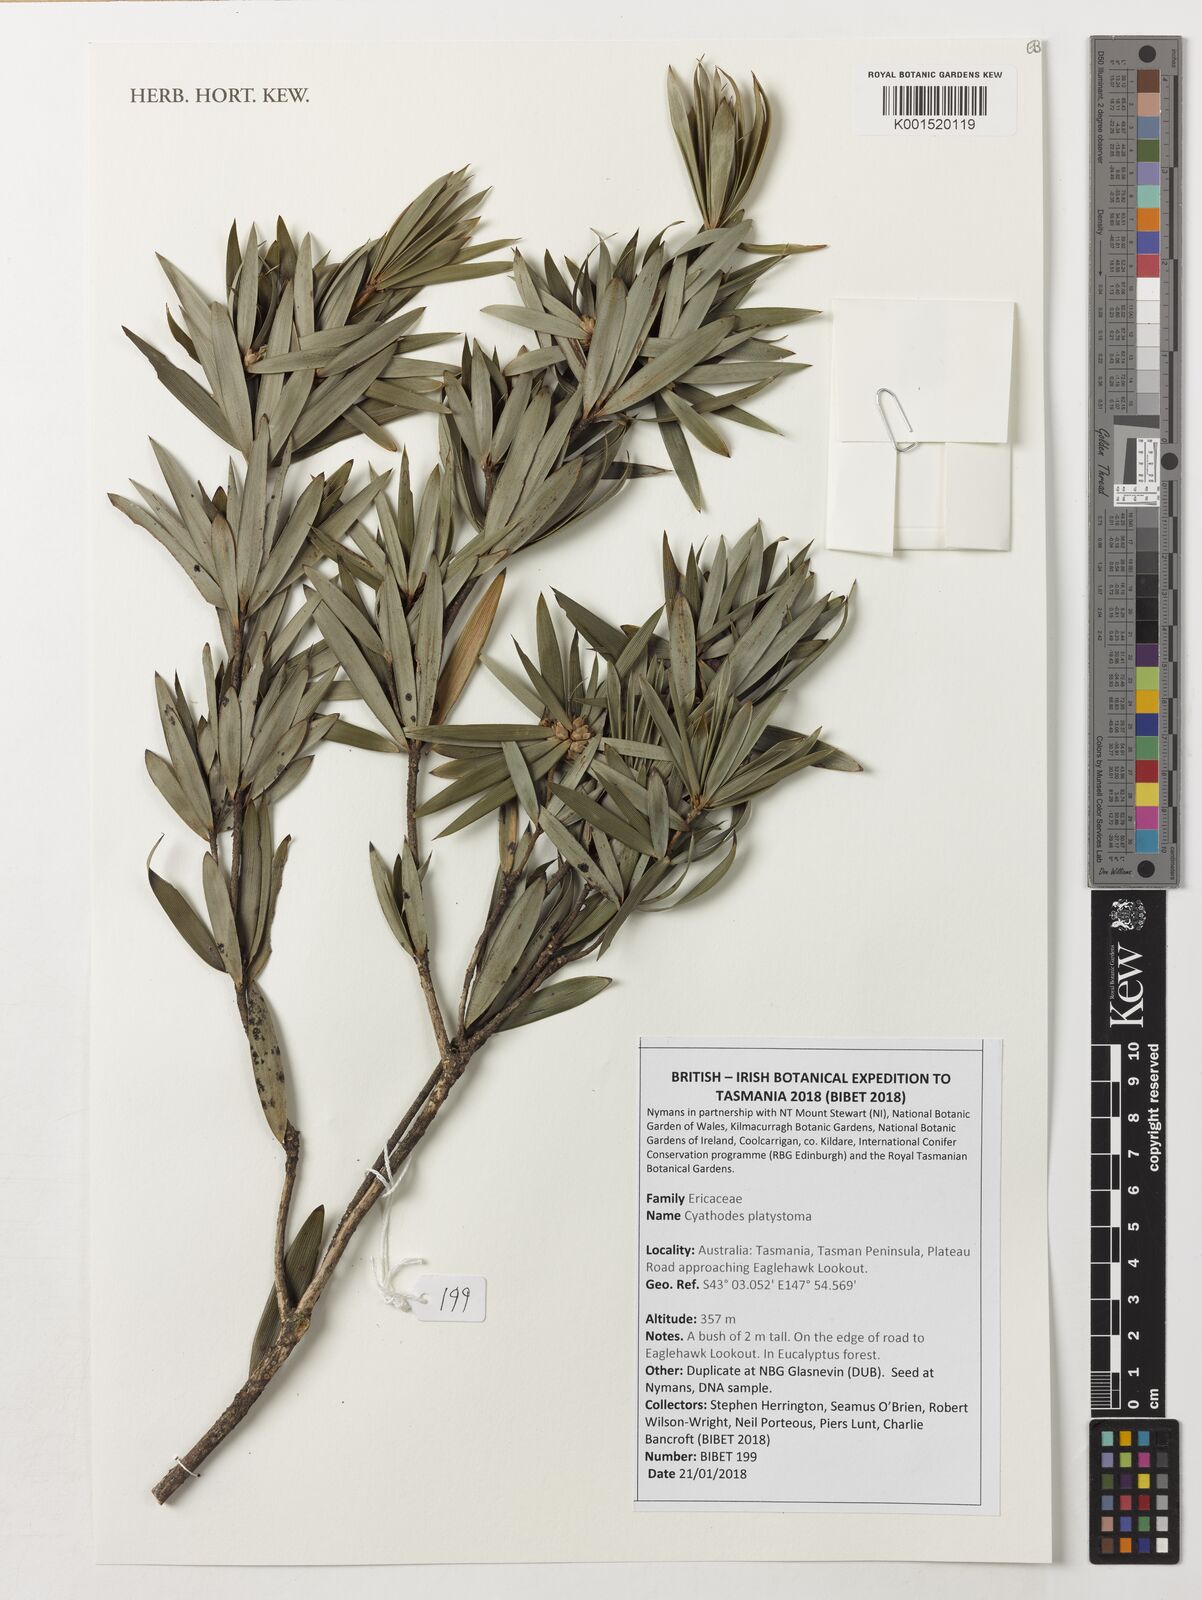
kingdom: Plantae
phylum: Tracheophyta
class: Magnoliopsida
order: Ericales
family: Ericaceae
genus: Cyathodes
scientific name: Cyathodes platystoma
